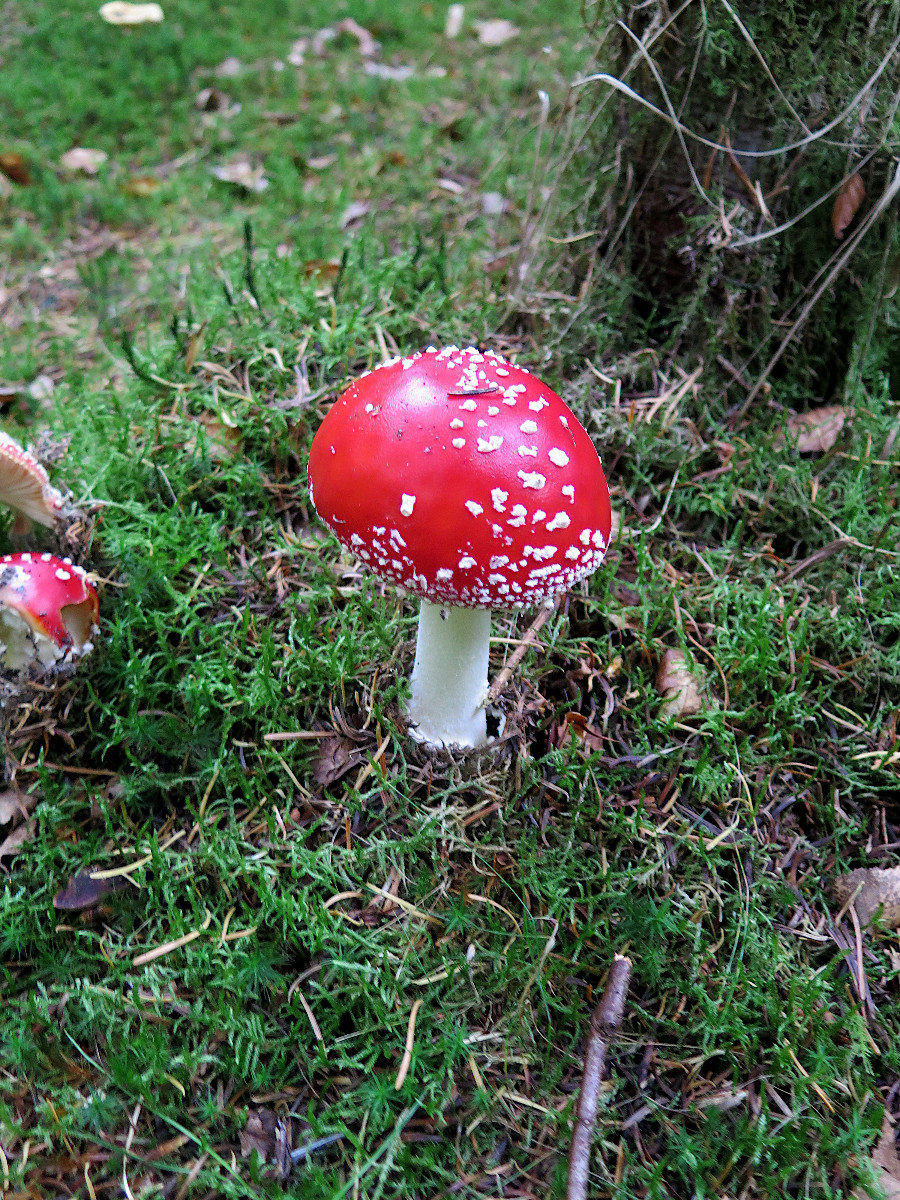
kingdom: Fungi
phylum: Basidiomycota
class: Agaricomycetes
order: Agaricales
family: Amanitaceae
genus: Amanita
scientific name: Amanita muscaria
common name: rød fluesvamp
